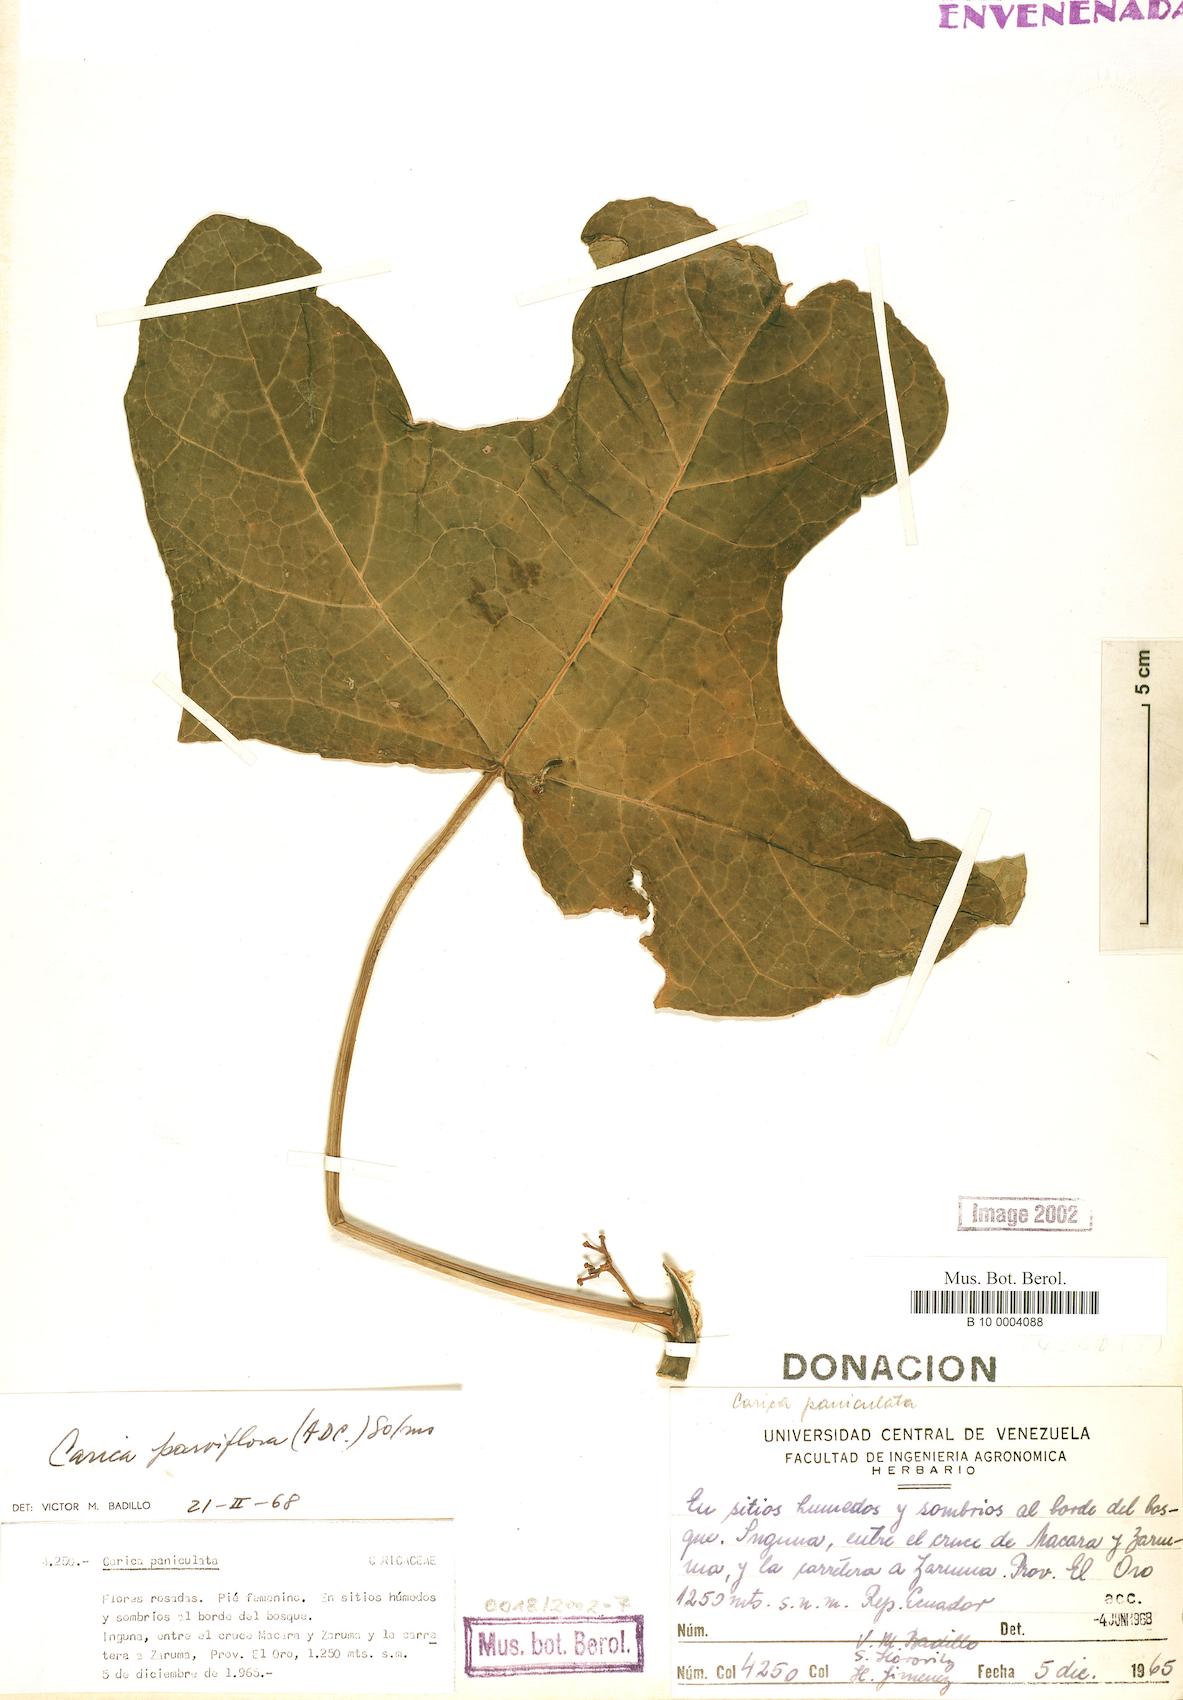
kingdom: Plantae
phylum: Tracheophyta
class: Magnoliopsida
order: Brassicales
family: Caricaceae
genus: Vasconcellea
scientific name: Vasconcellea parviflora
